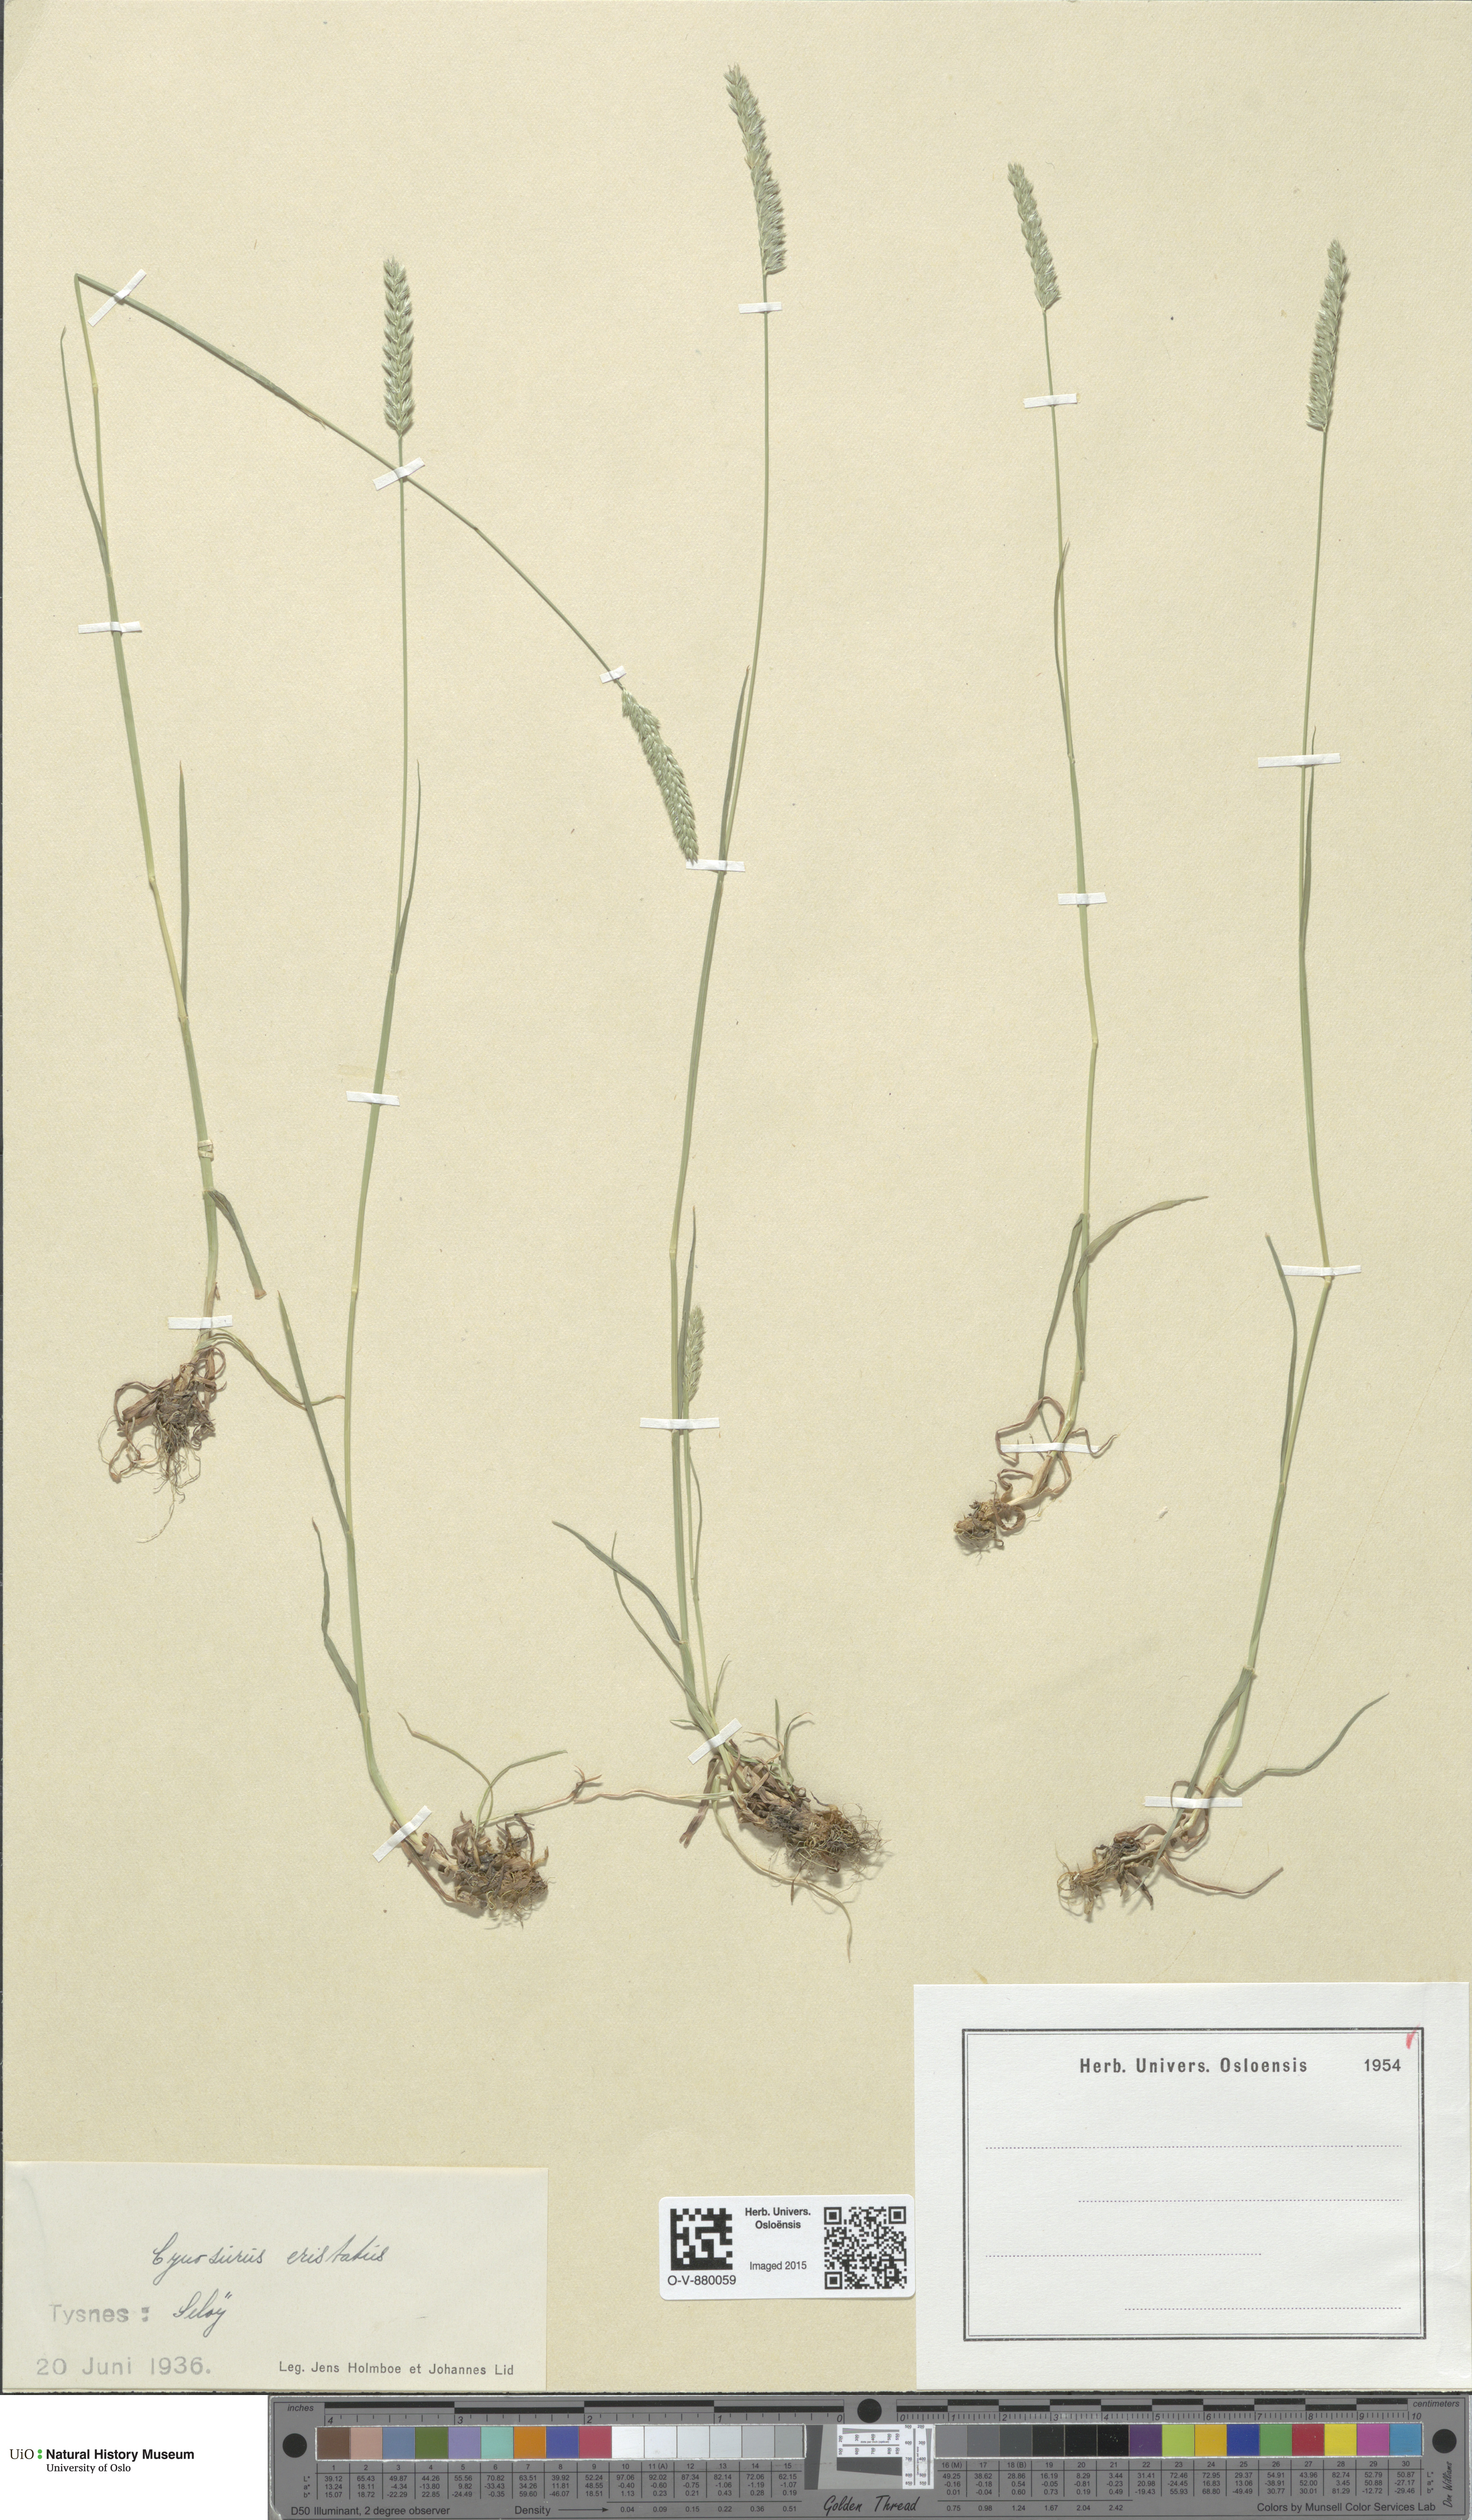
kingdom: Plantae
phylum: Tracheophyta
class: Liliopsida
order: Poales
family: Poaceae
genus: Cynosurus
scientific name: Cynosurus cristatus
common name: Crested dog's-tail
